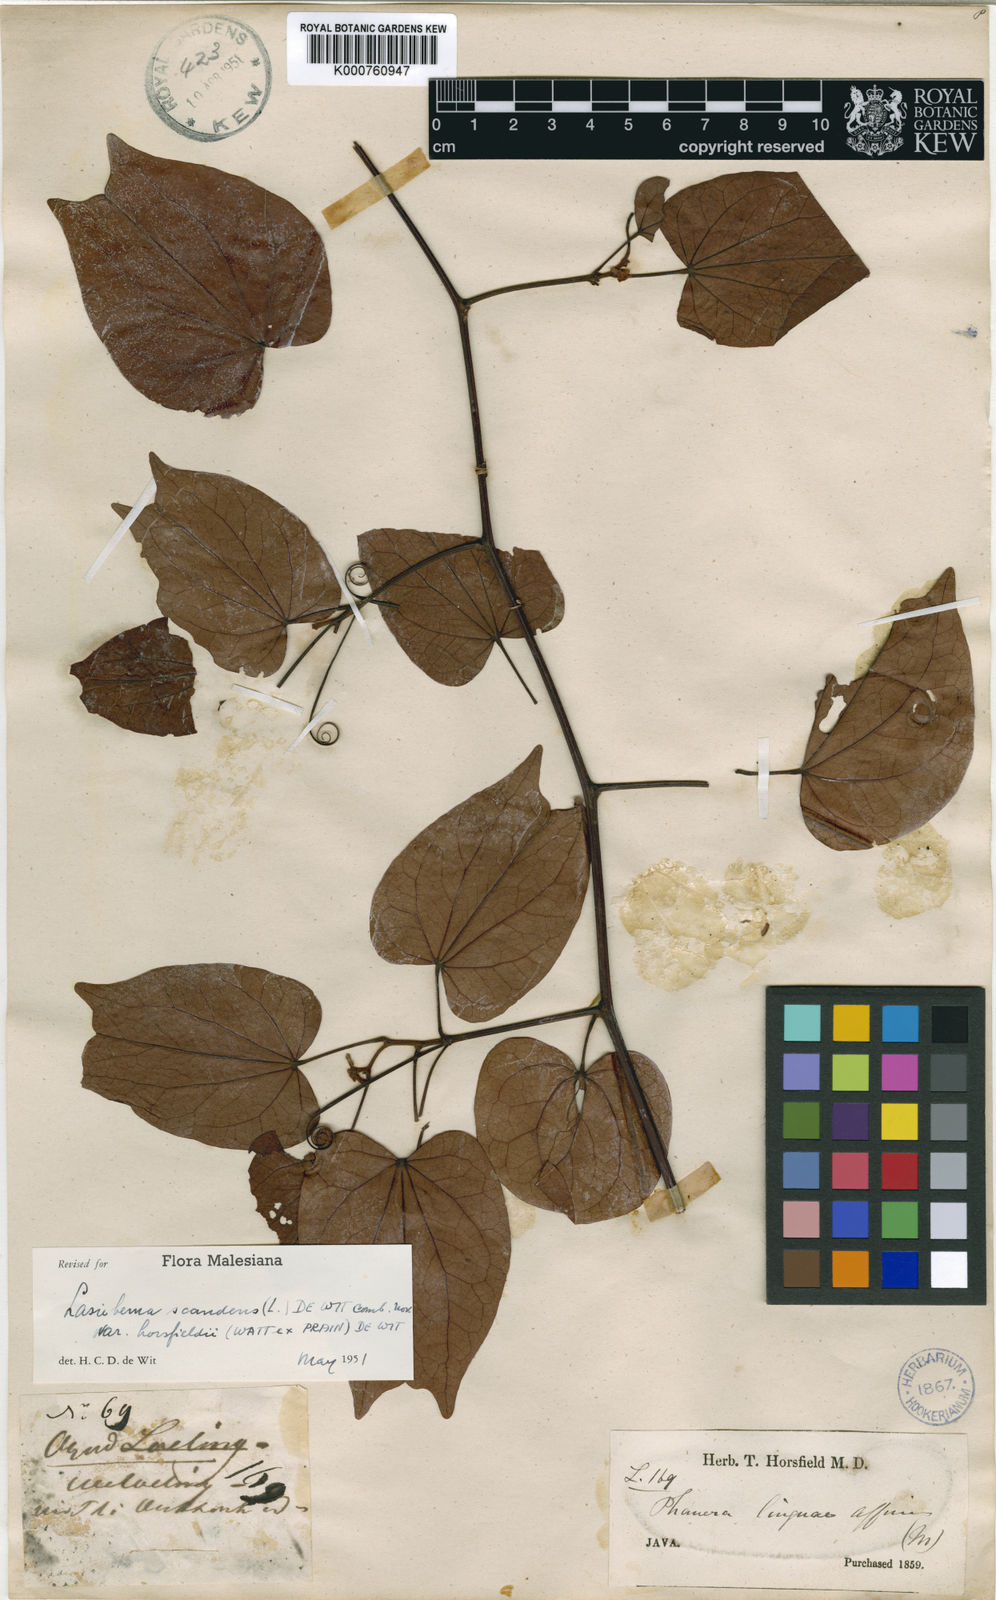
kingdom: Plantae
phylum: Tracheophyta
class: Magnoliopsida
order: Fabales
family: Fabaceae
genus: Phanera
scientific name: Phanera scandens
